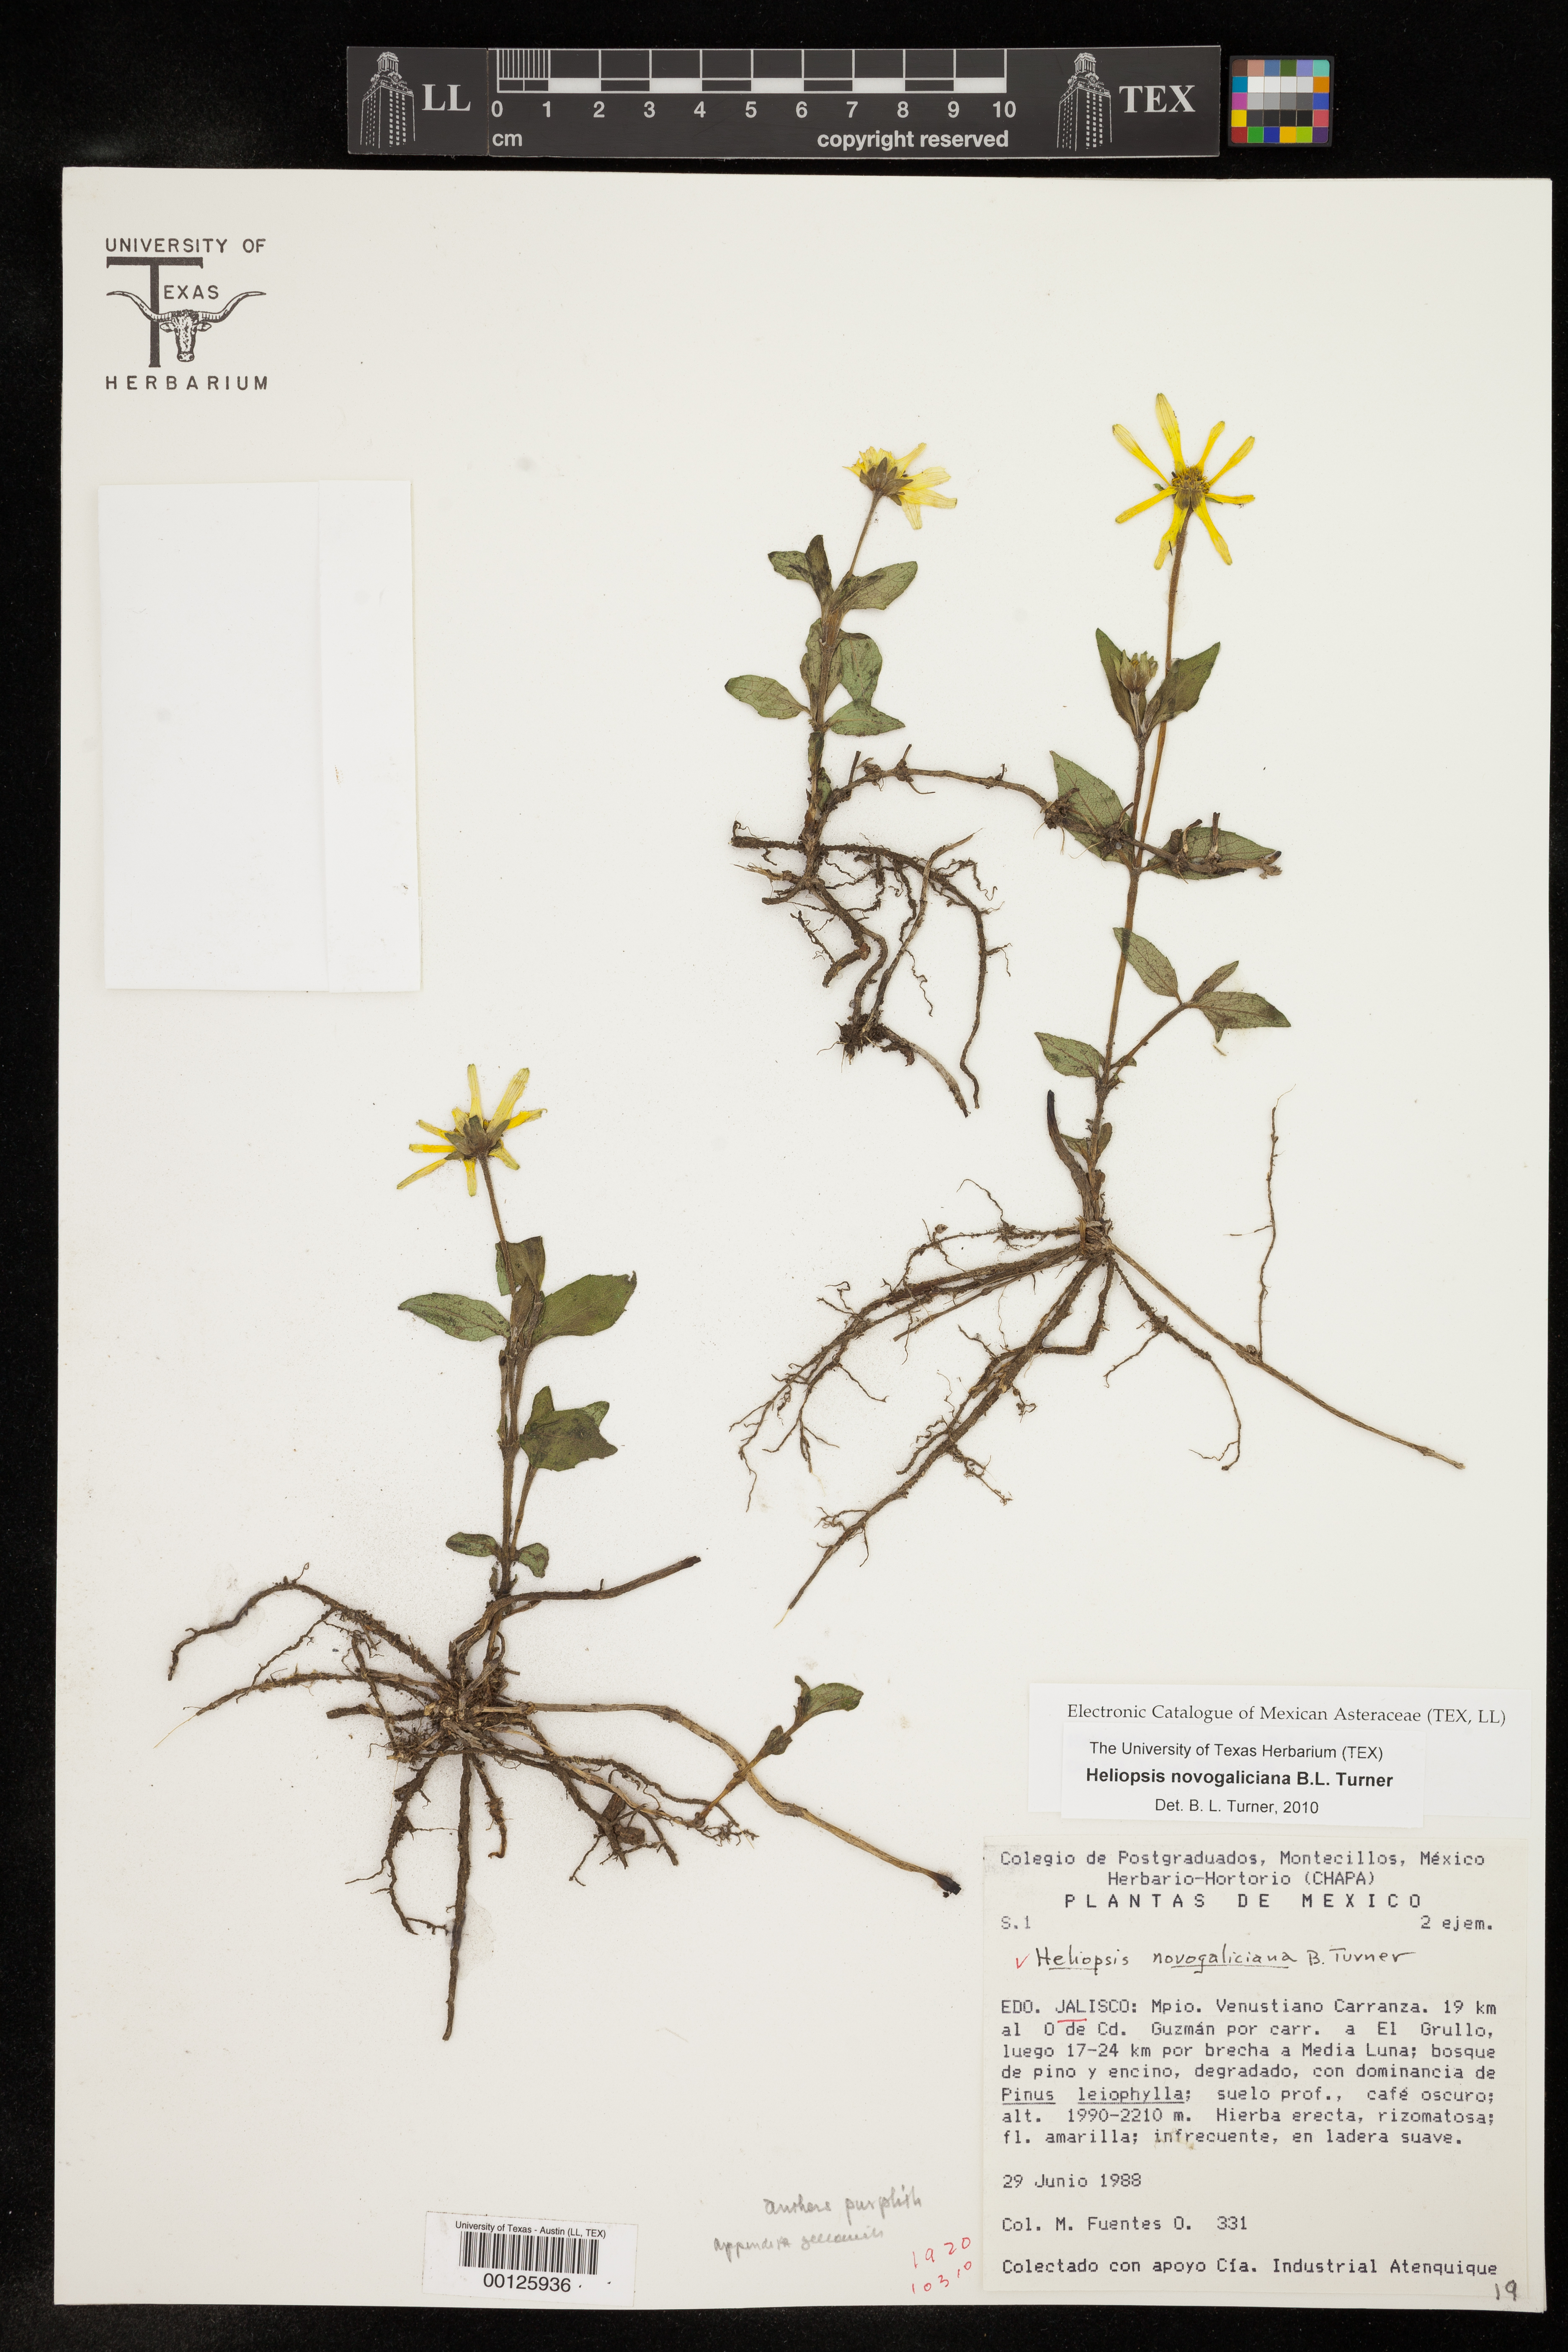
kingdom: Plantae
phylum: Tracheophyta
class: Magnoliopsida
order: Asterales
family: Asteraceae
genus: Heliopsis
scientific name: Heliopsis novogaliciana
